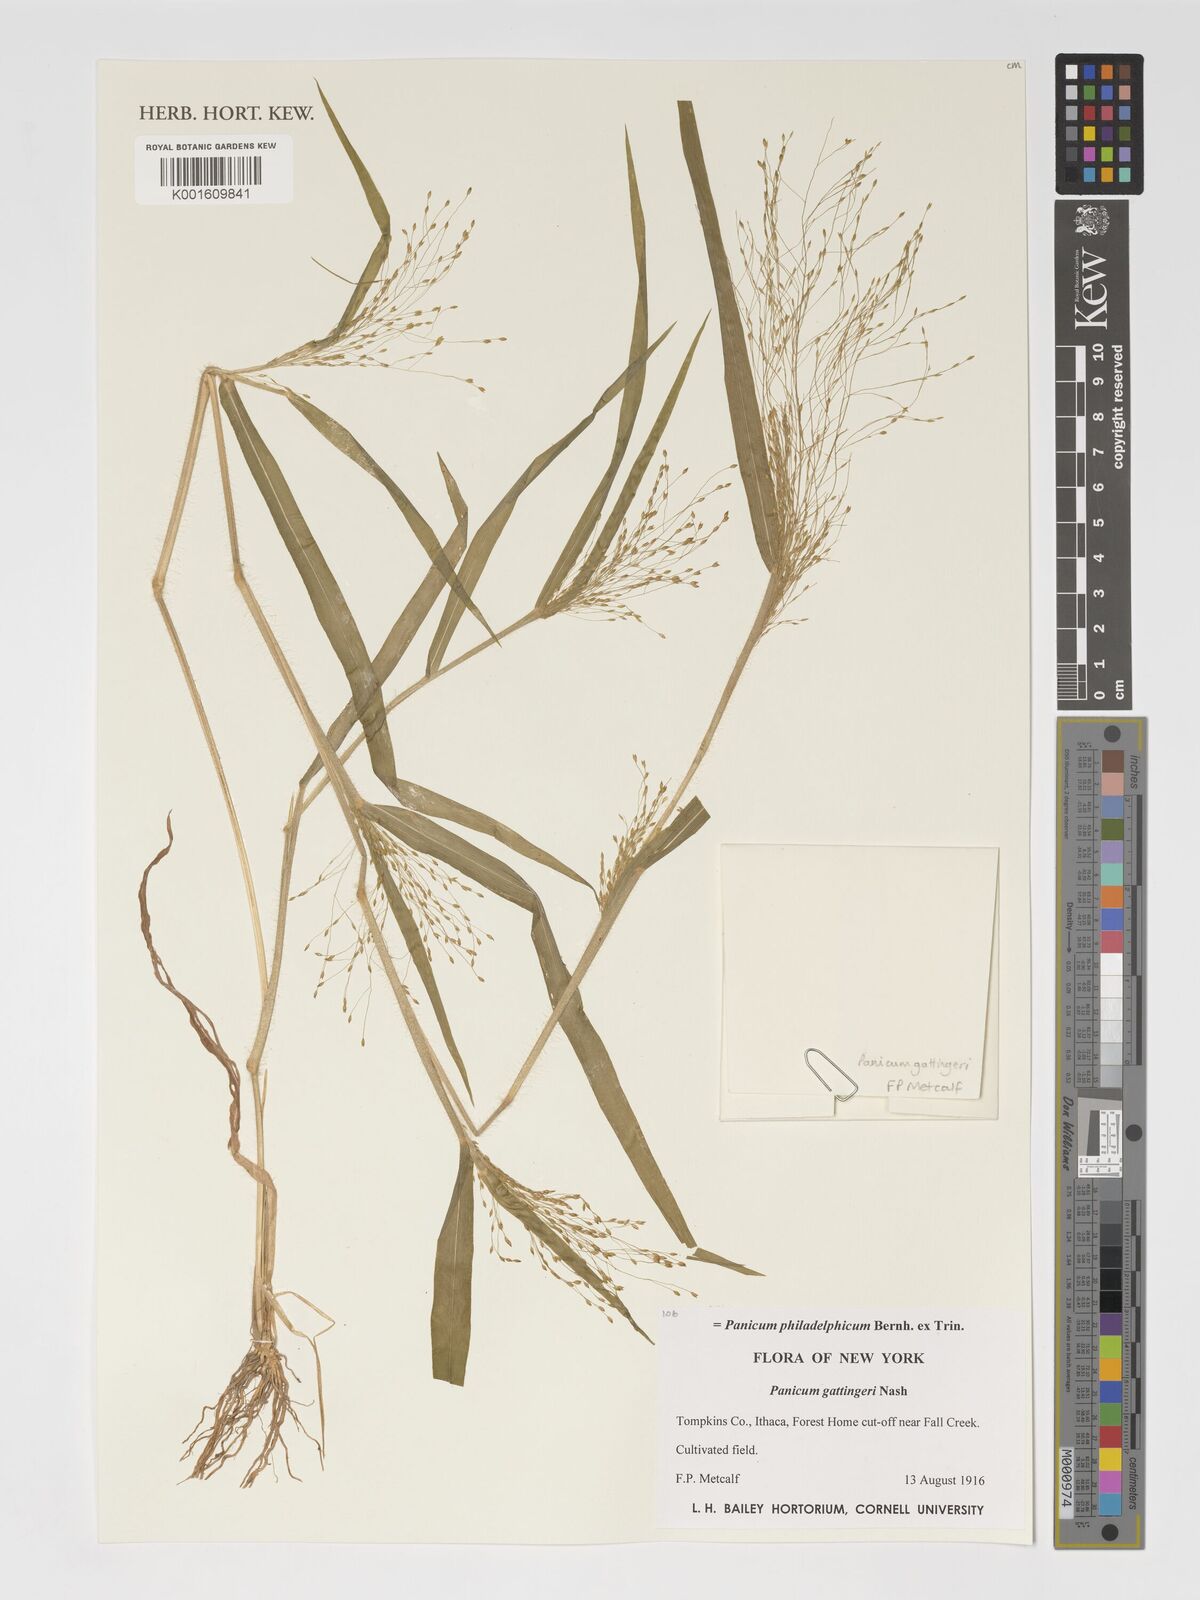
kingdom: Plantae
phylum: Tracheophyta
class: Liliopsida
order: Poales
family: Poaceae
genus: Panicum
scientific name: Panicum philadelphicum
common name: Philadelphia witchgrass
